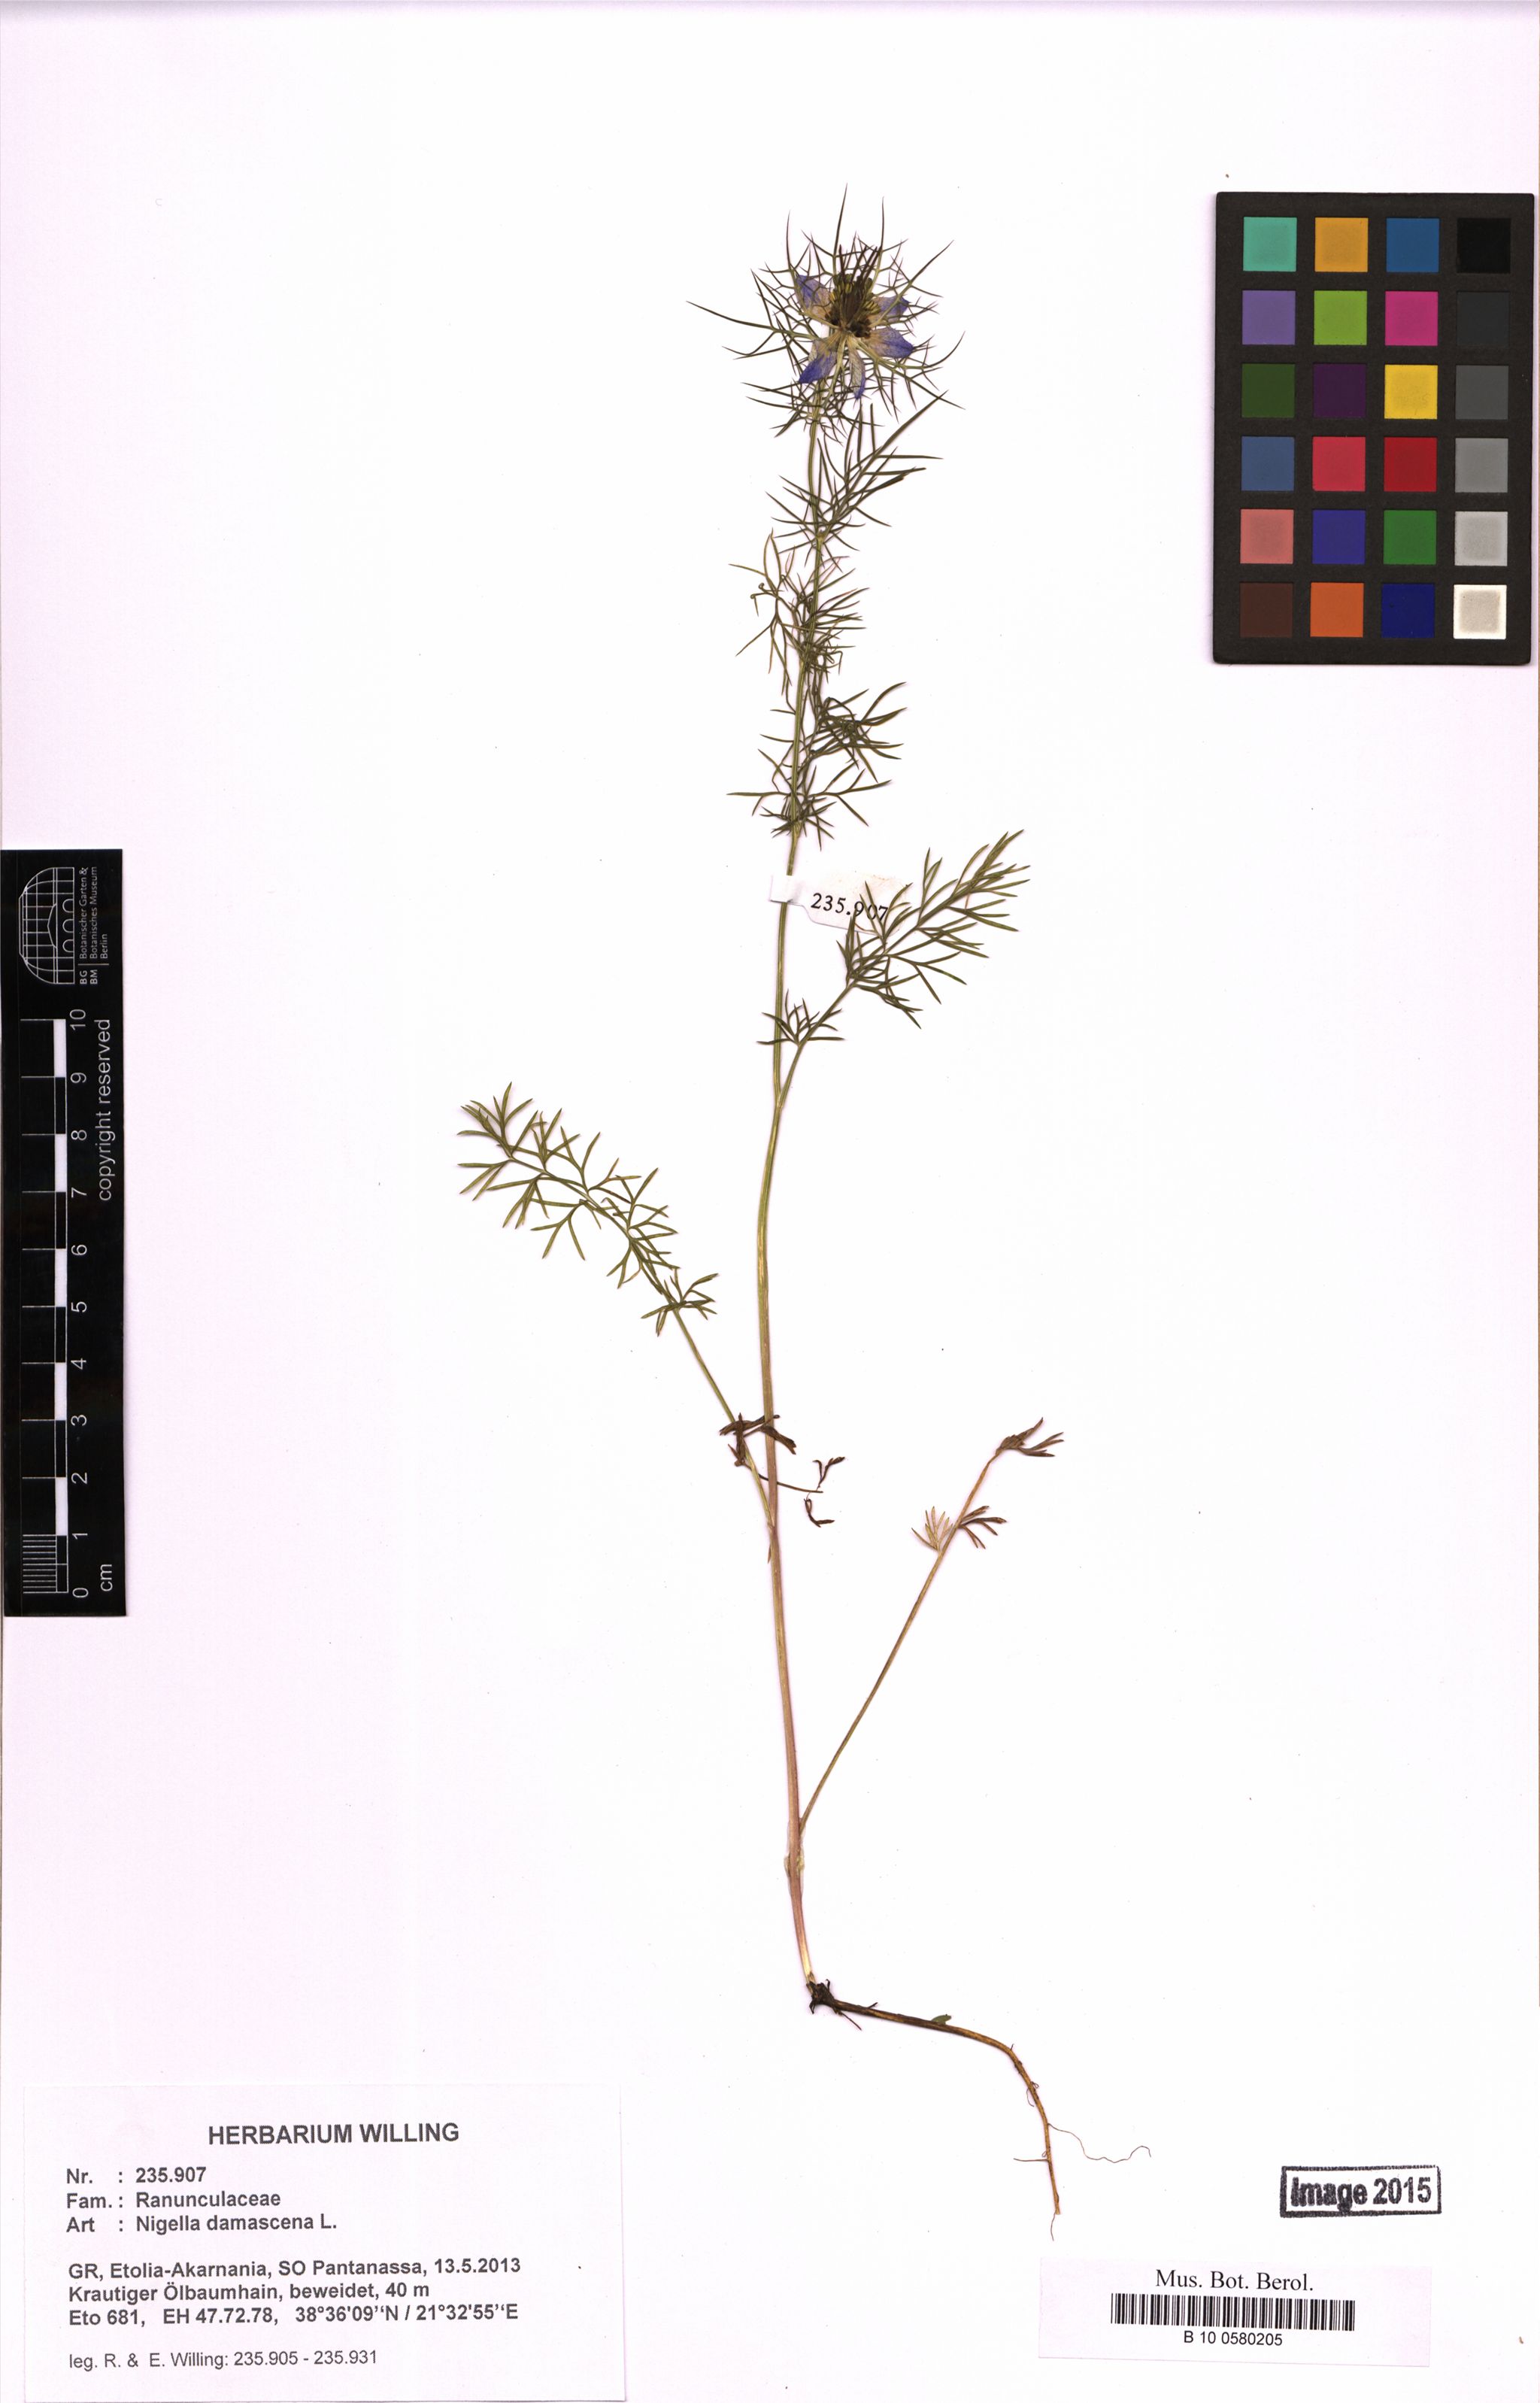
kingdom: Plantae
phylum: Tracheophyta
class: Magnoliopsida
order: Ranunculales
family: Ranunculaceae
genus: Nigella
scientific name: Nigella damascena
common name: Love-in-a-mist
